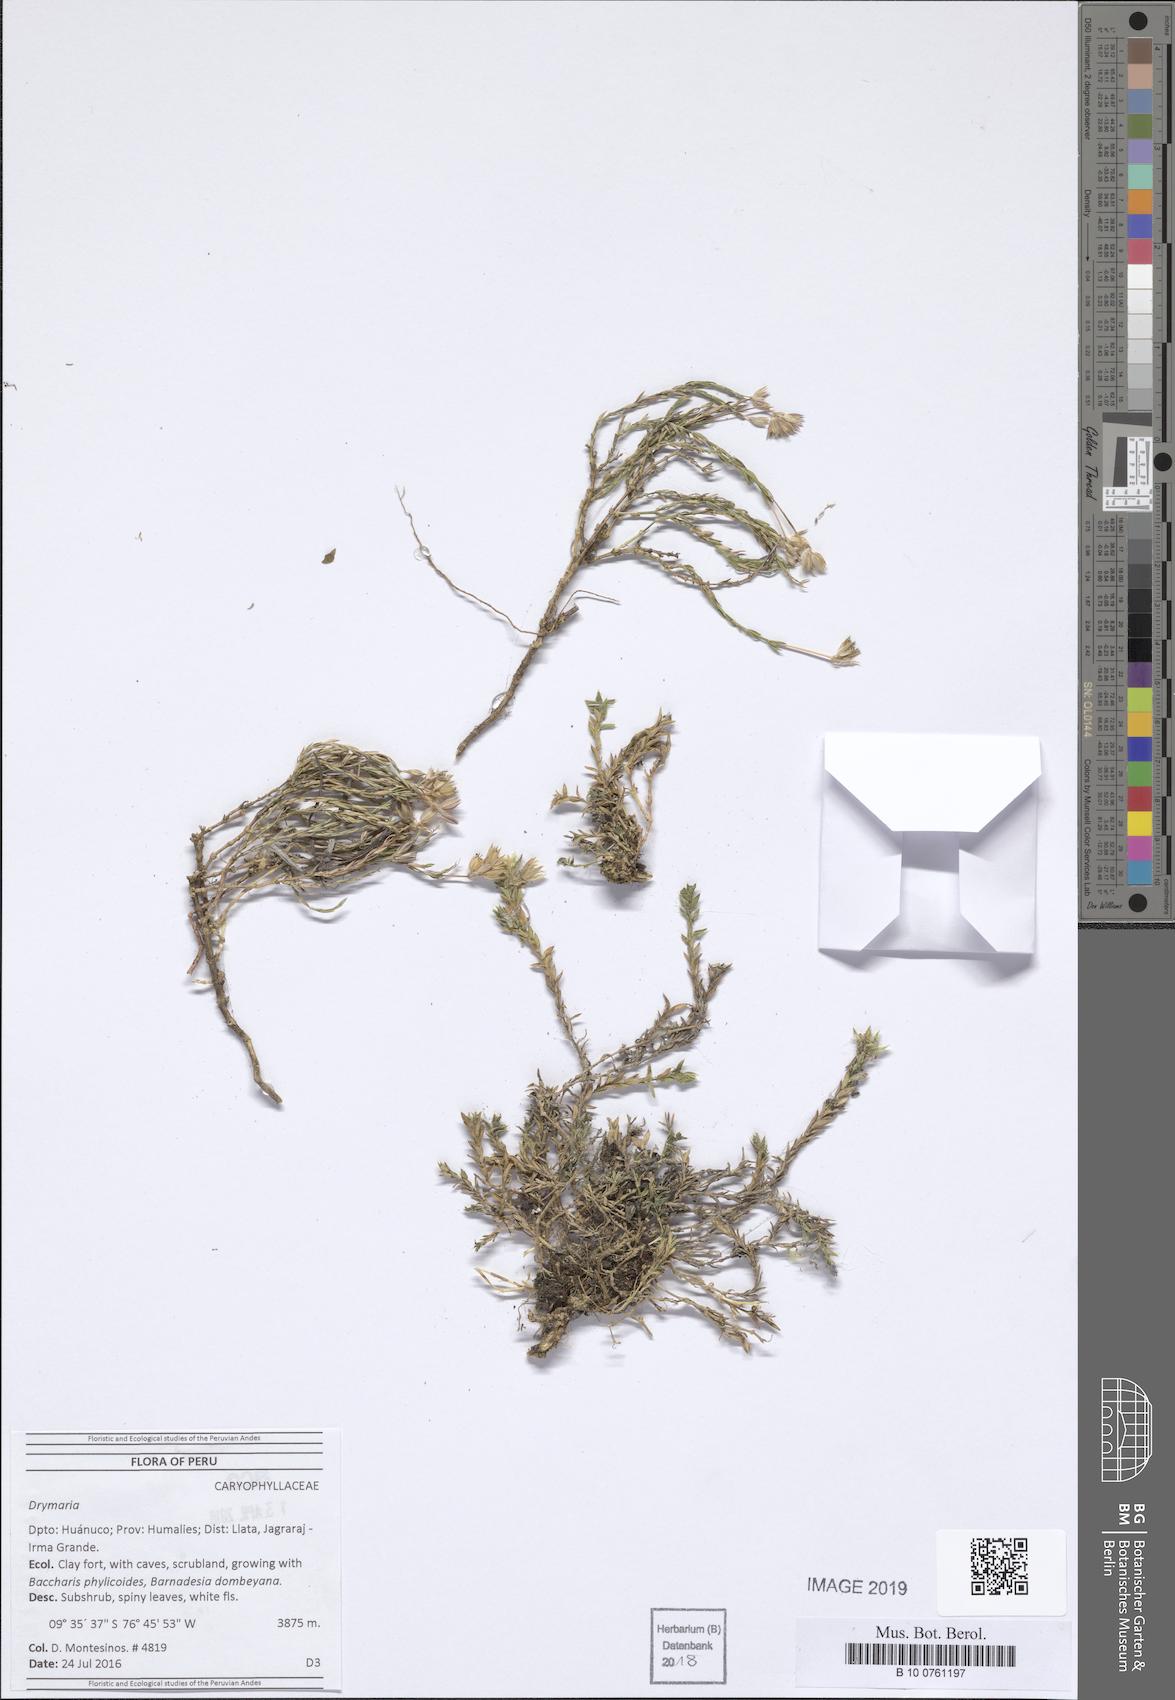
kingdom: Plantae
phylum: Tracheophyta
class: Magnoliopsida
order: Caryophyllales
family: Caryophyllaceae
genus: Drymaria
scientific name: Drymaria
